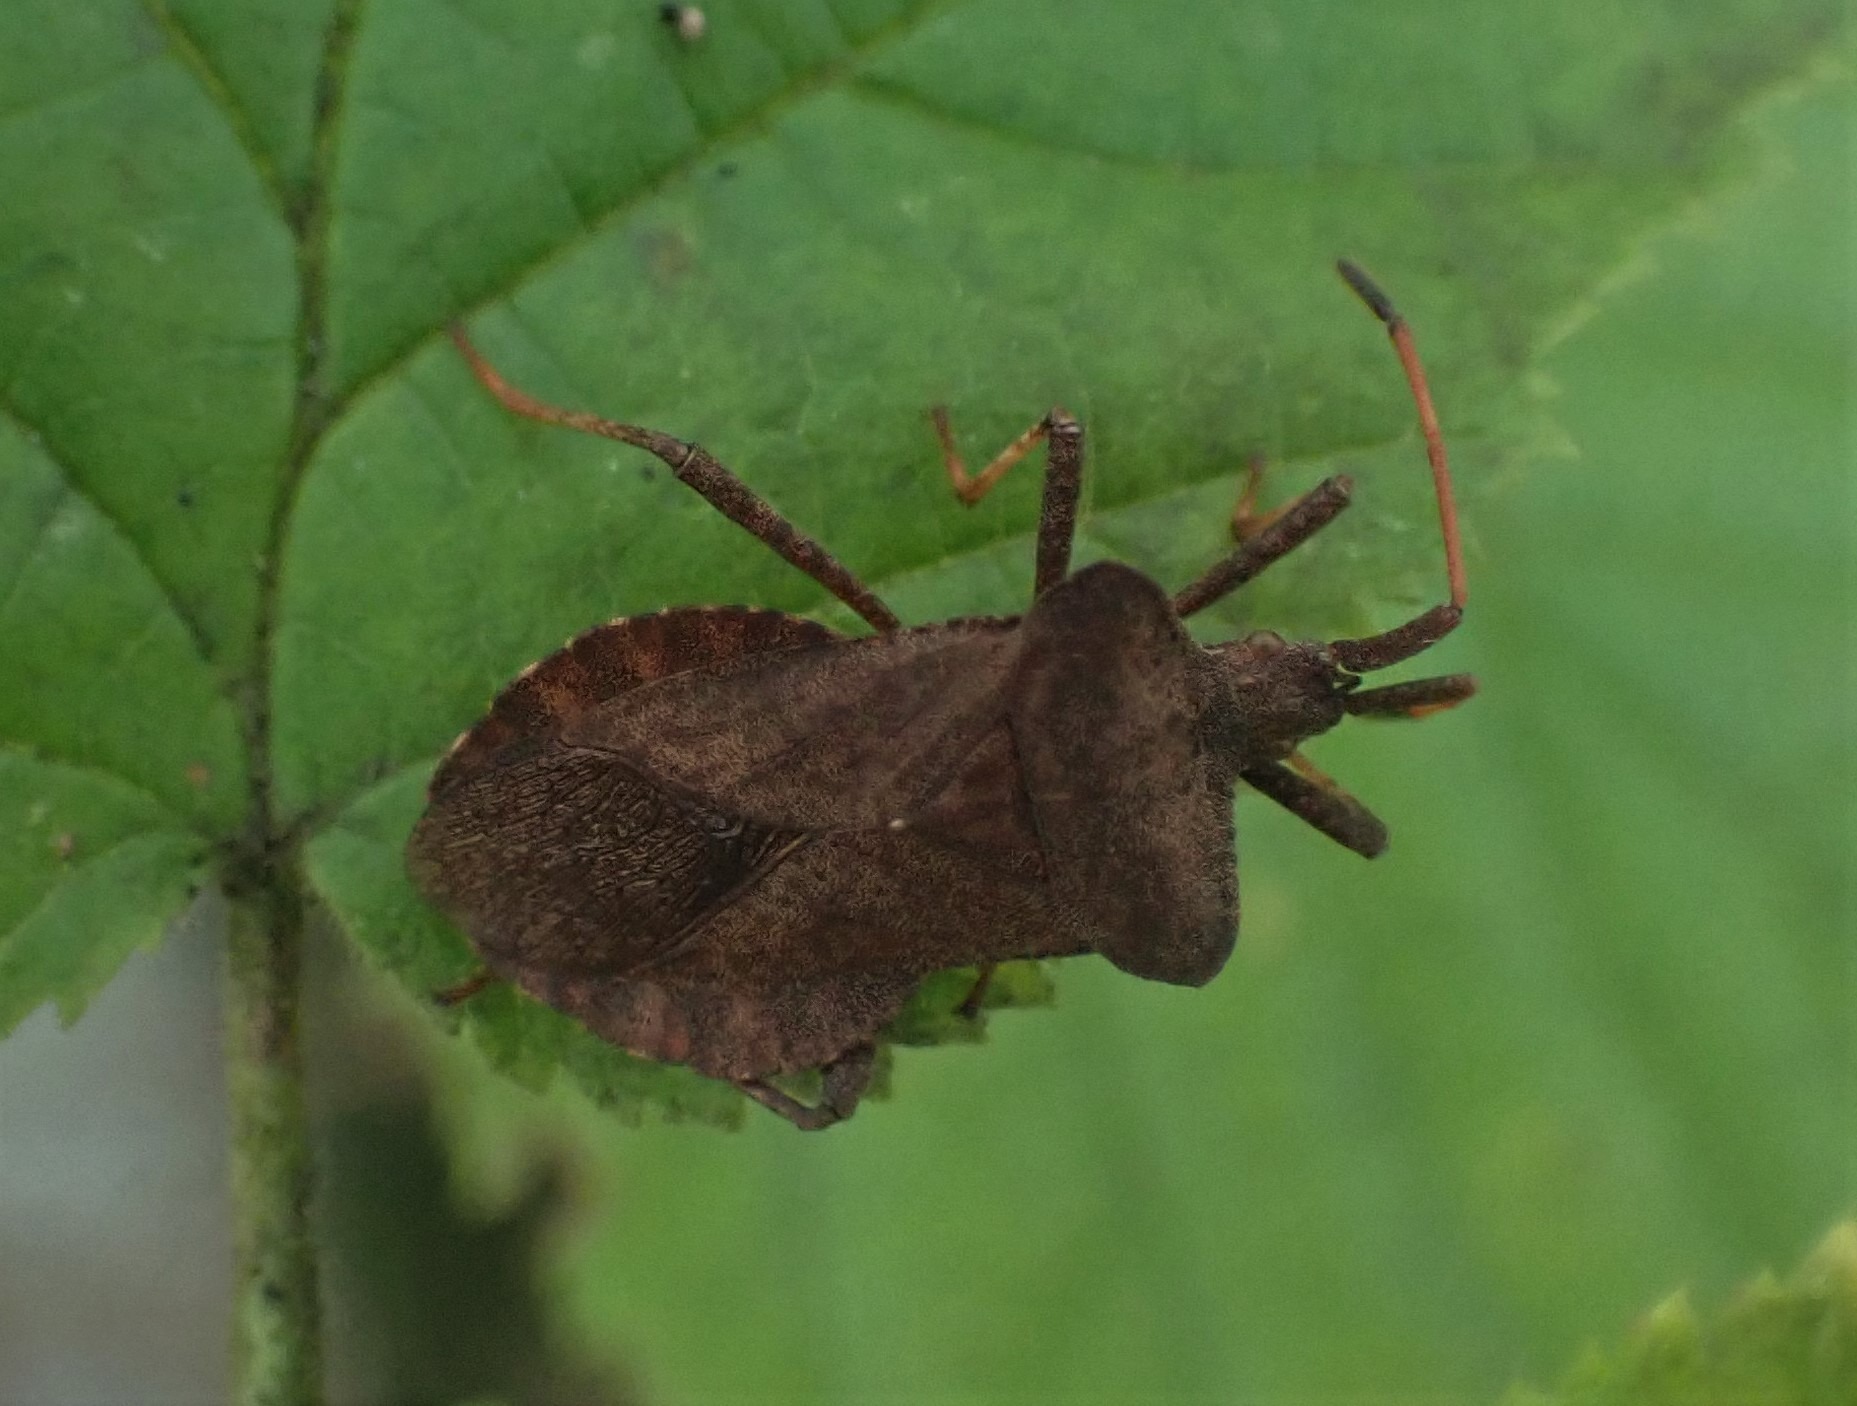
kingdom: Animalia
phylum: Arthropoda
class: Insecta
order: Hemiptera
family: Coreidae
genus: Coreus
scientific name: Coreus marginatus
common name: Skræppetæge
